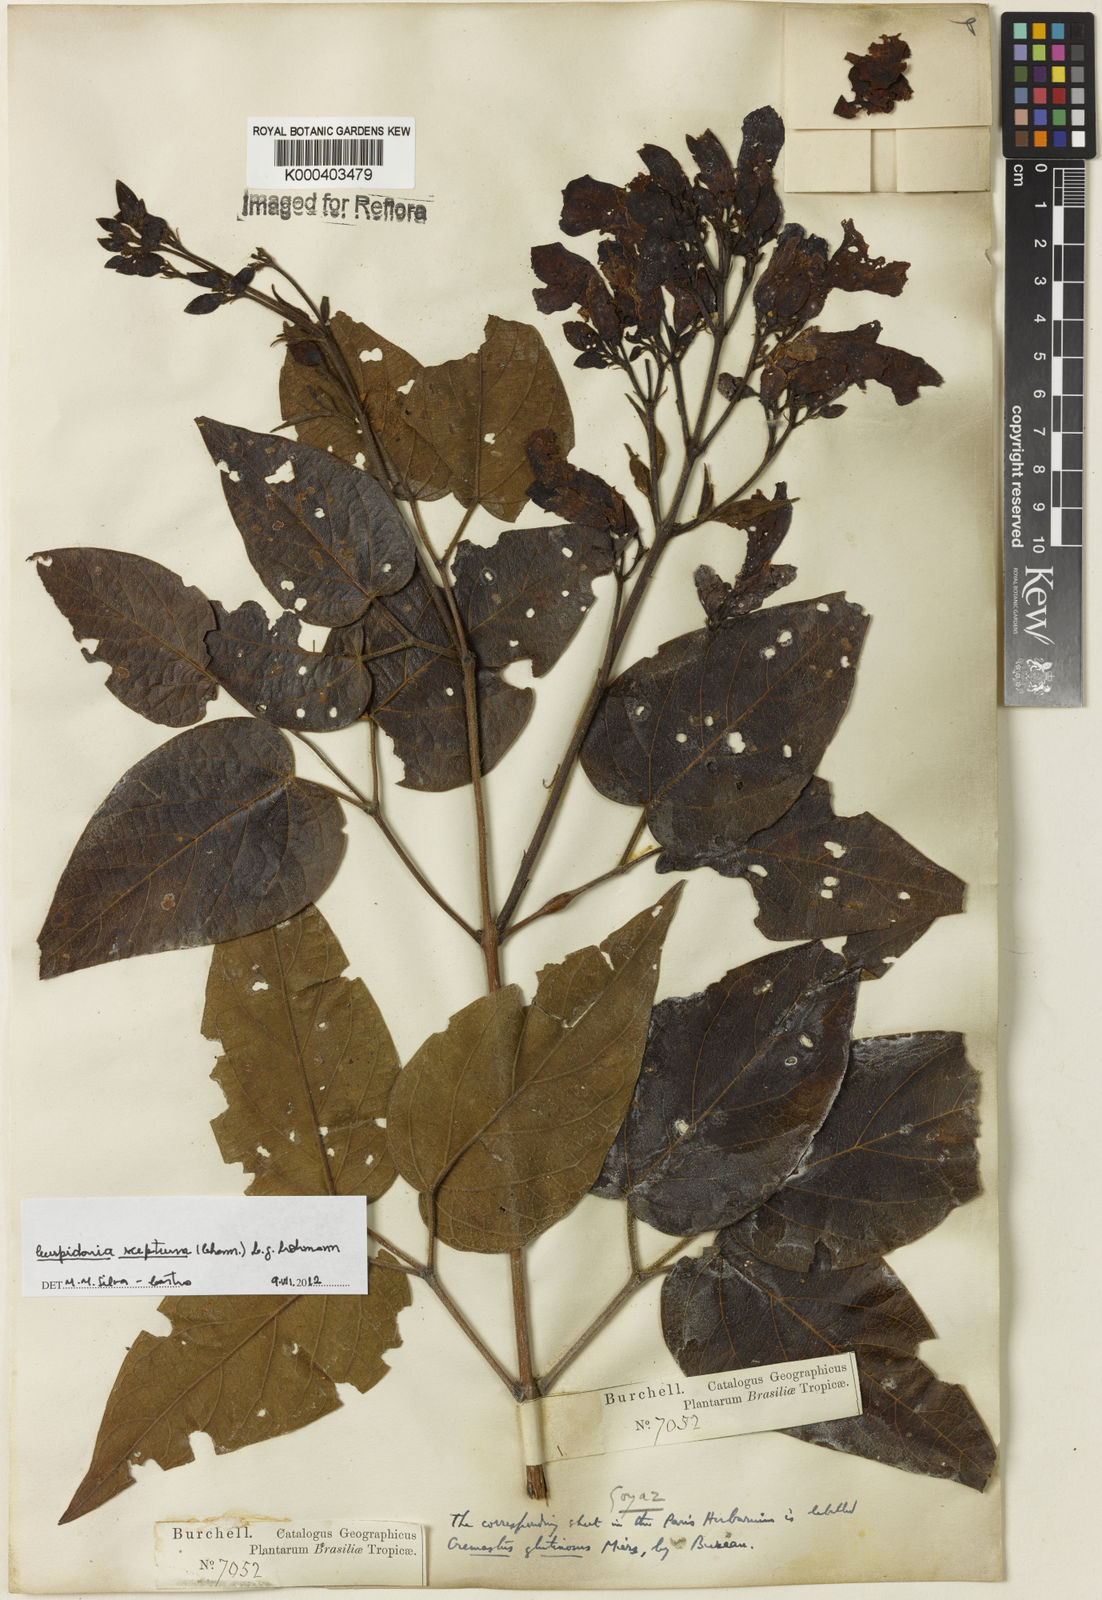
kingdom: Plantae
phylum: Tracheophyta
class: Magnoliopsida
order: Lamiales
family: Bignoniaceae
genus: Cuspidaria
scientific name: Cuspidaria sceptrum
